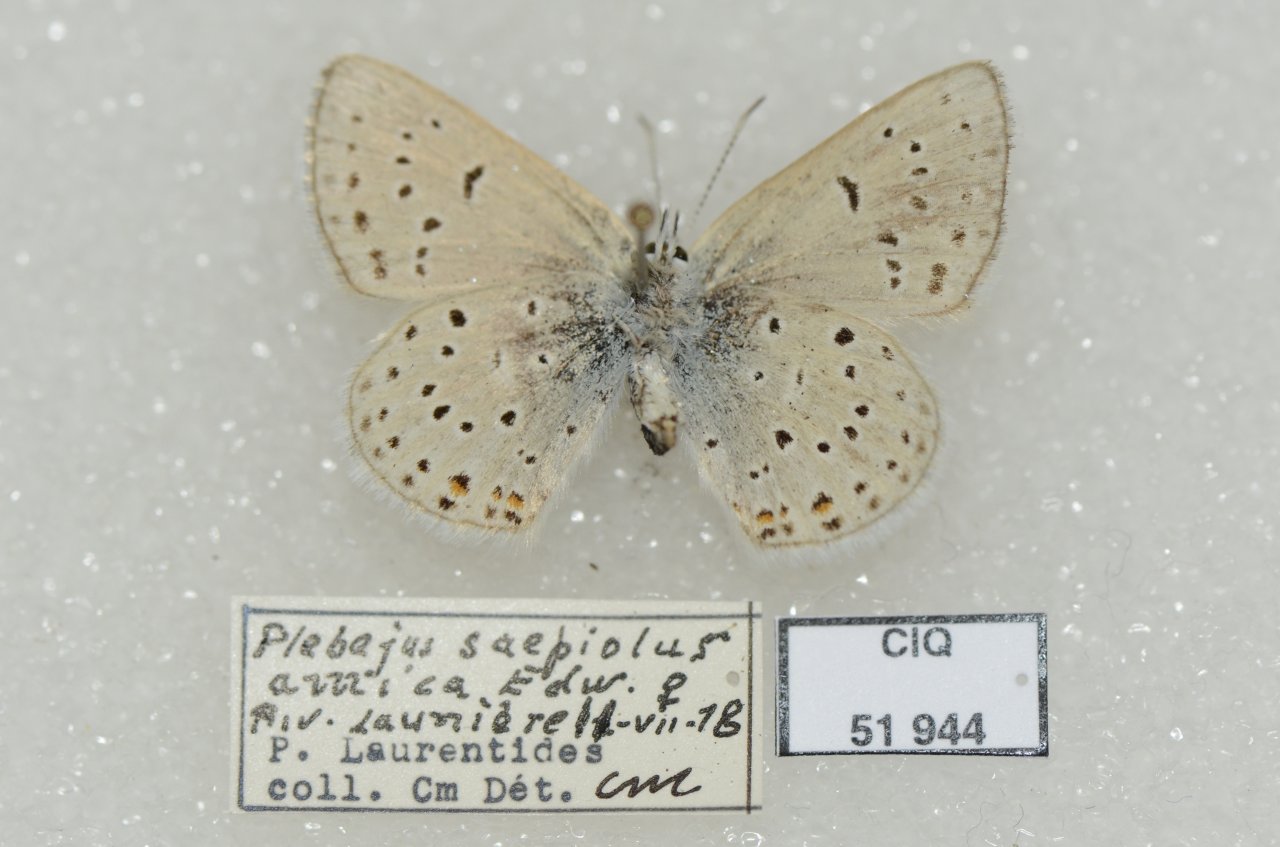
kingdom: Animalia
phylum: Arthropoda
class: Insecta
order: Lepidoptera
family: Lycaenidae
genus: Plebejus
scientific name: Plebejus saepiolus
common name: Greenish Blue
